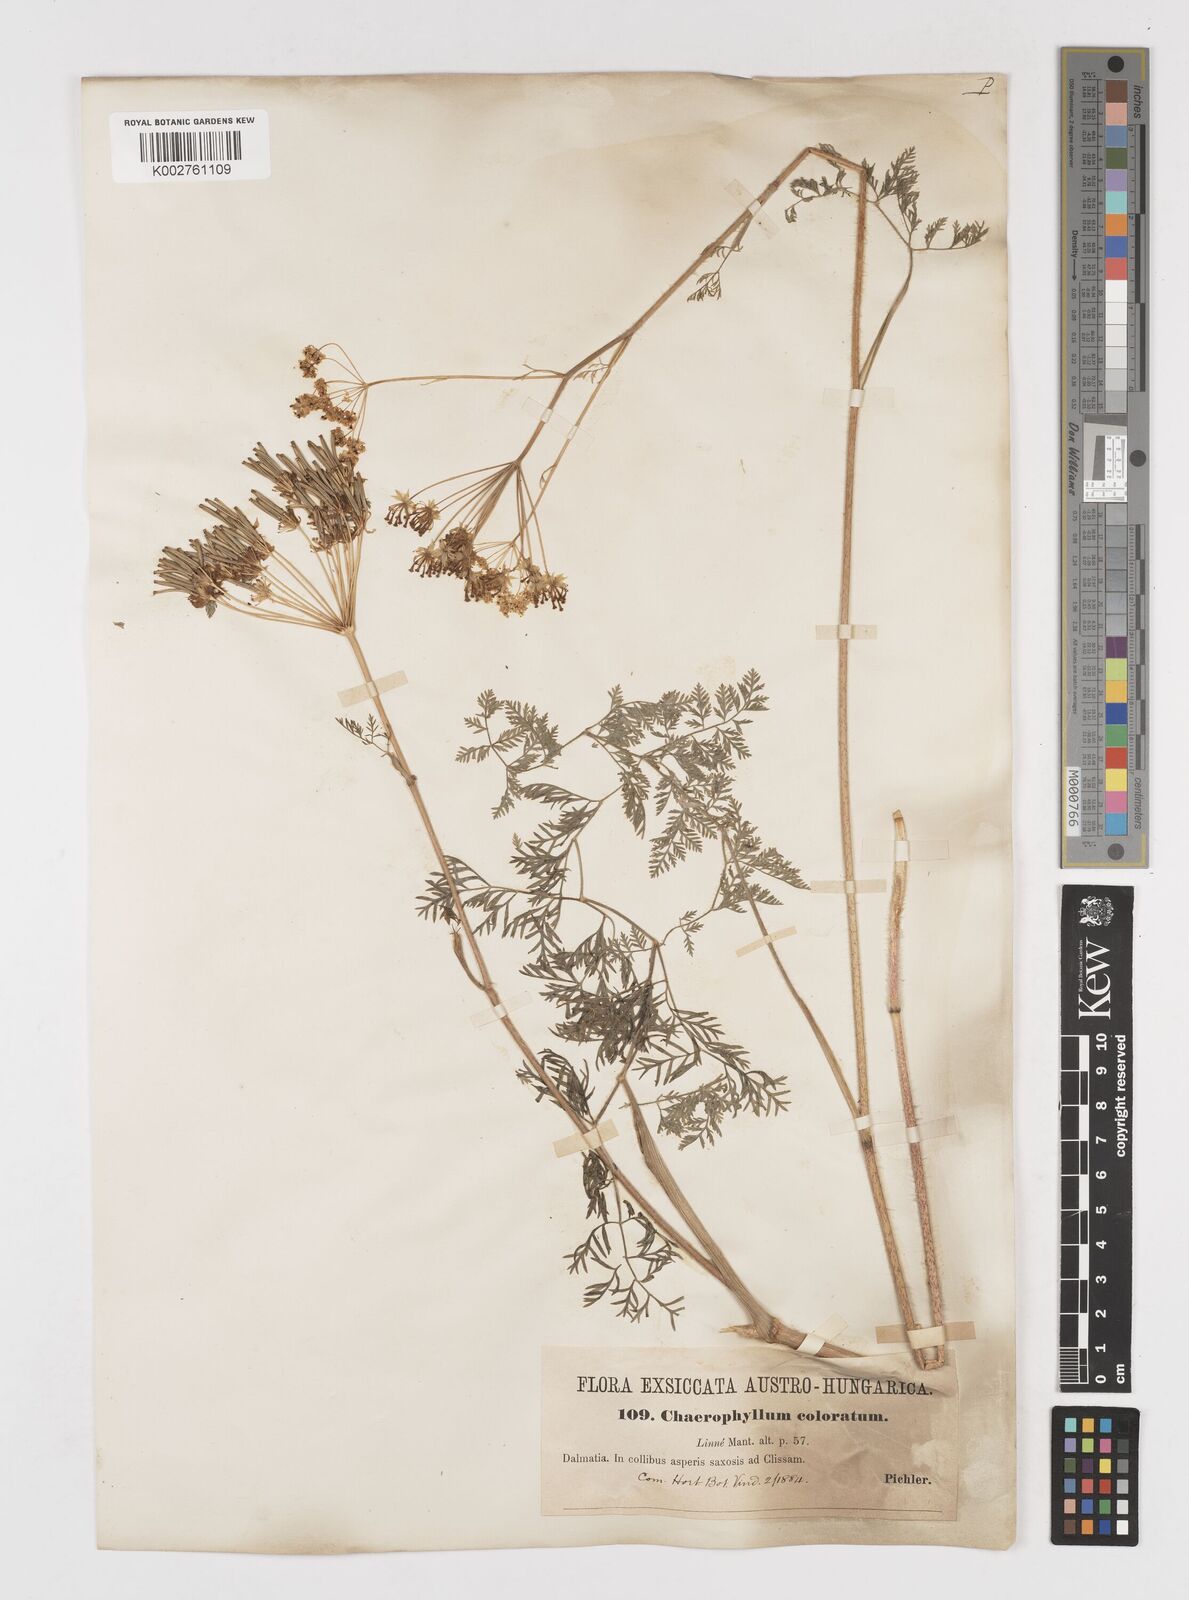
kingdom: Plantae
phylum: Tracheophyta
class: Magnoliopsida
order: Apiales
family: Apiaceae
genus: Chaerophyllum
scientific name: Chaerophyllum coloratum
